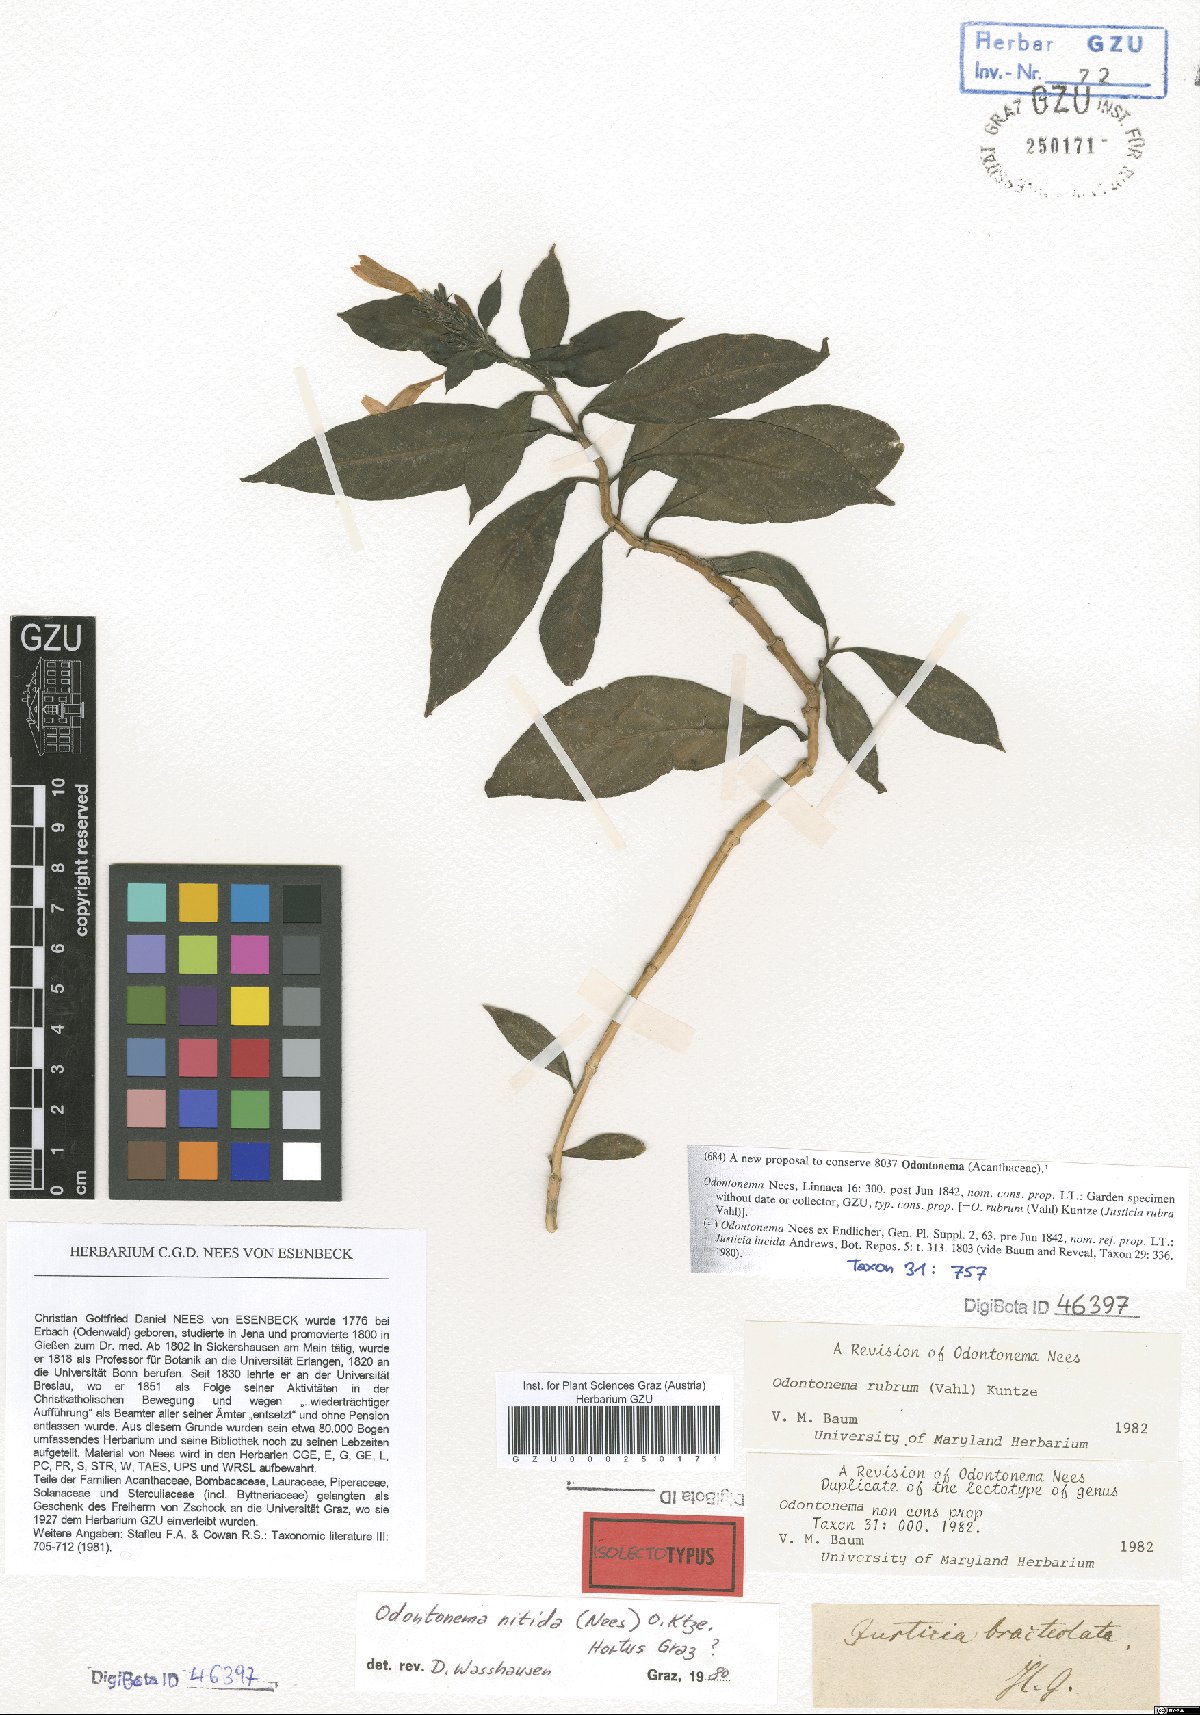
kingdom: Plantae
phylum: Tracheophyta
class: Magnoliopsida
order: Lamiales
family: Acanthaceae
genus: Odontonema
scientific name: Odontonema
